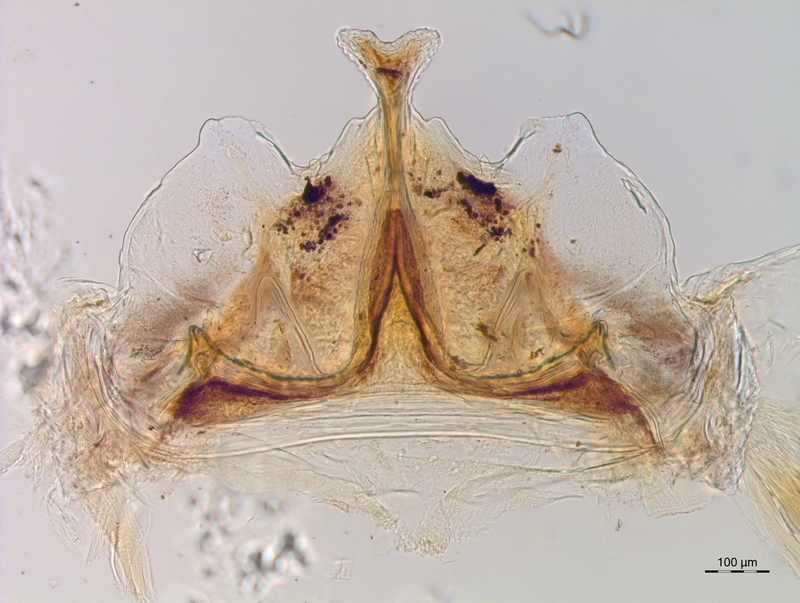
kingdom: Animalia
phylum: Arthropoda
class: Diplopoda
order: Chordeumatida
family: Craspedosomatidae
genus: Craspedosoma
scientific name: Craspedosoma slavum
